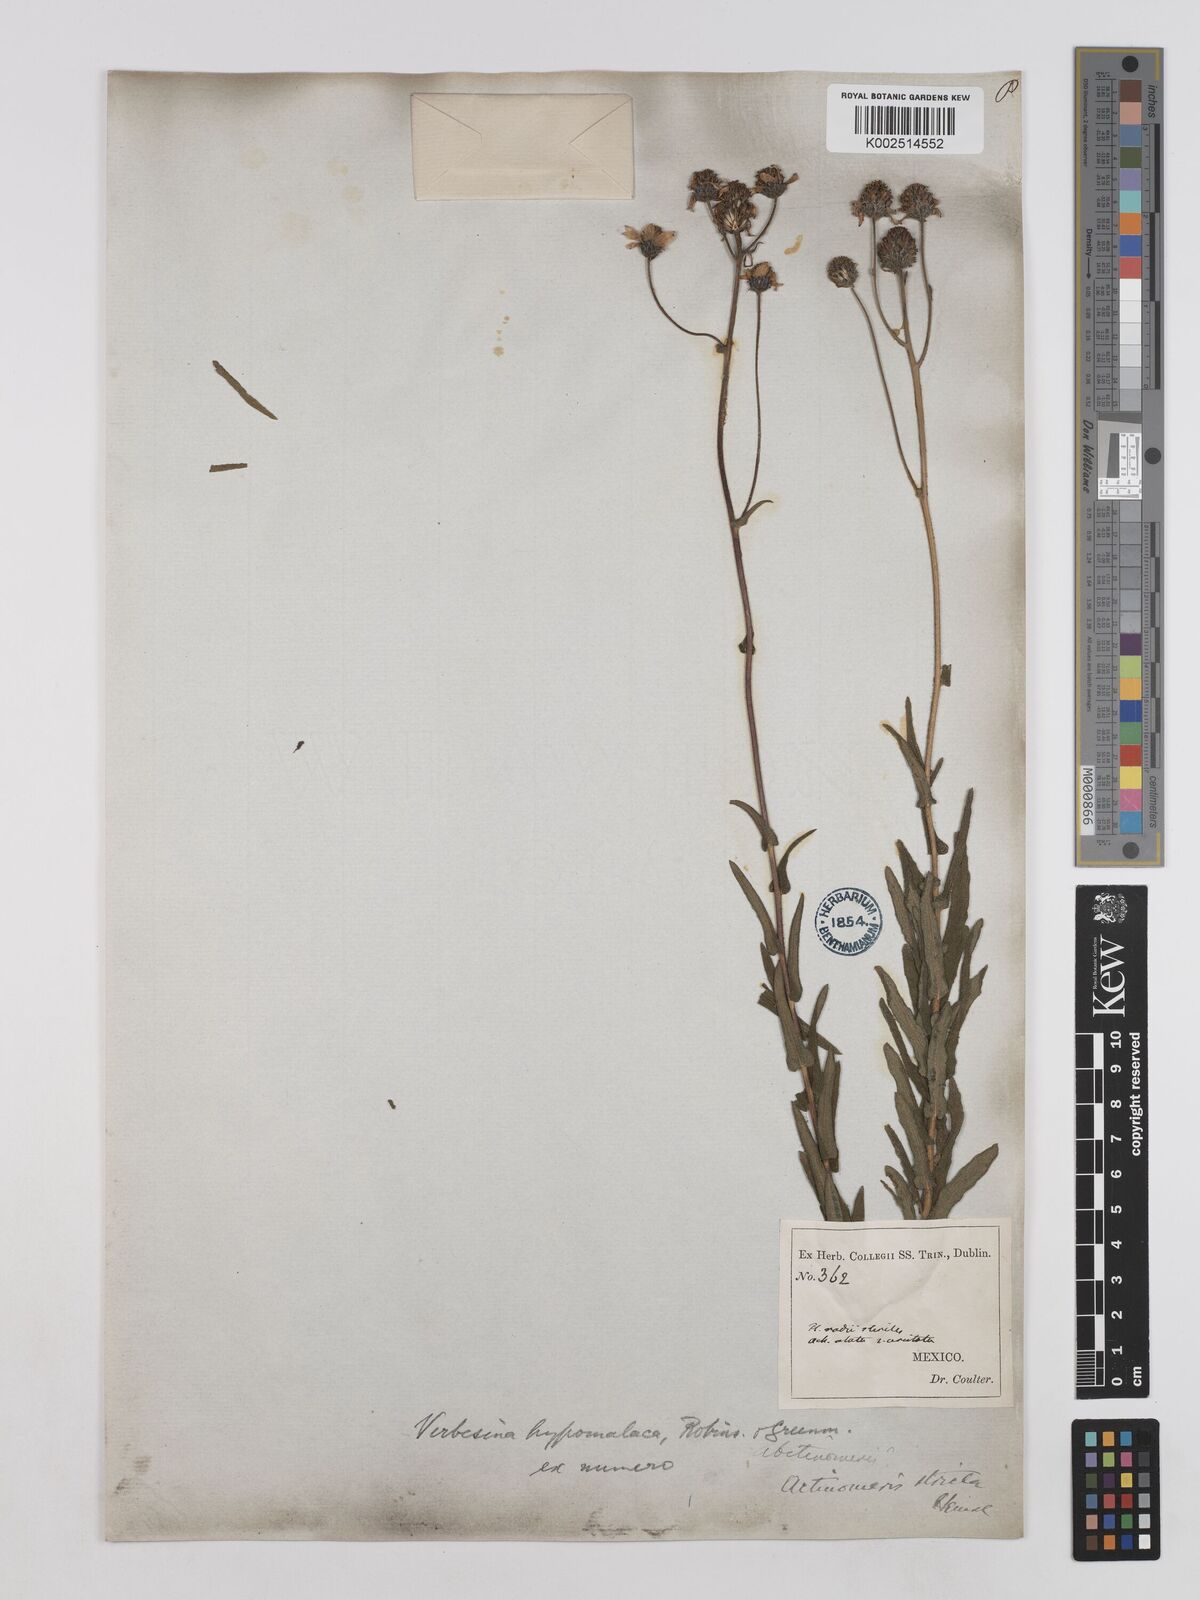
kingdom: Plantae
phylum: Tracheophyta
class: Magnoliopsida
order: Asterales
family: Asteraceae
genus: Verbesina
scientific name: Verbesina hypomalaca
